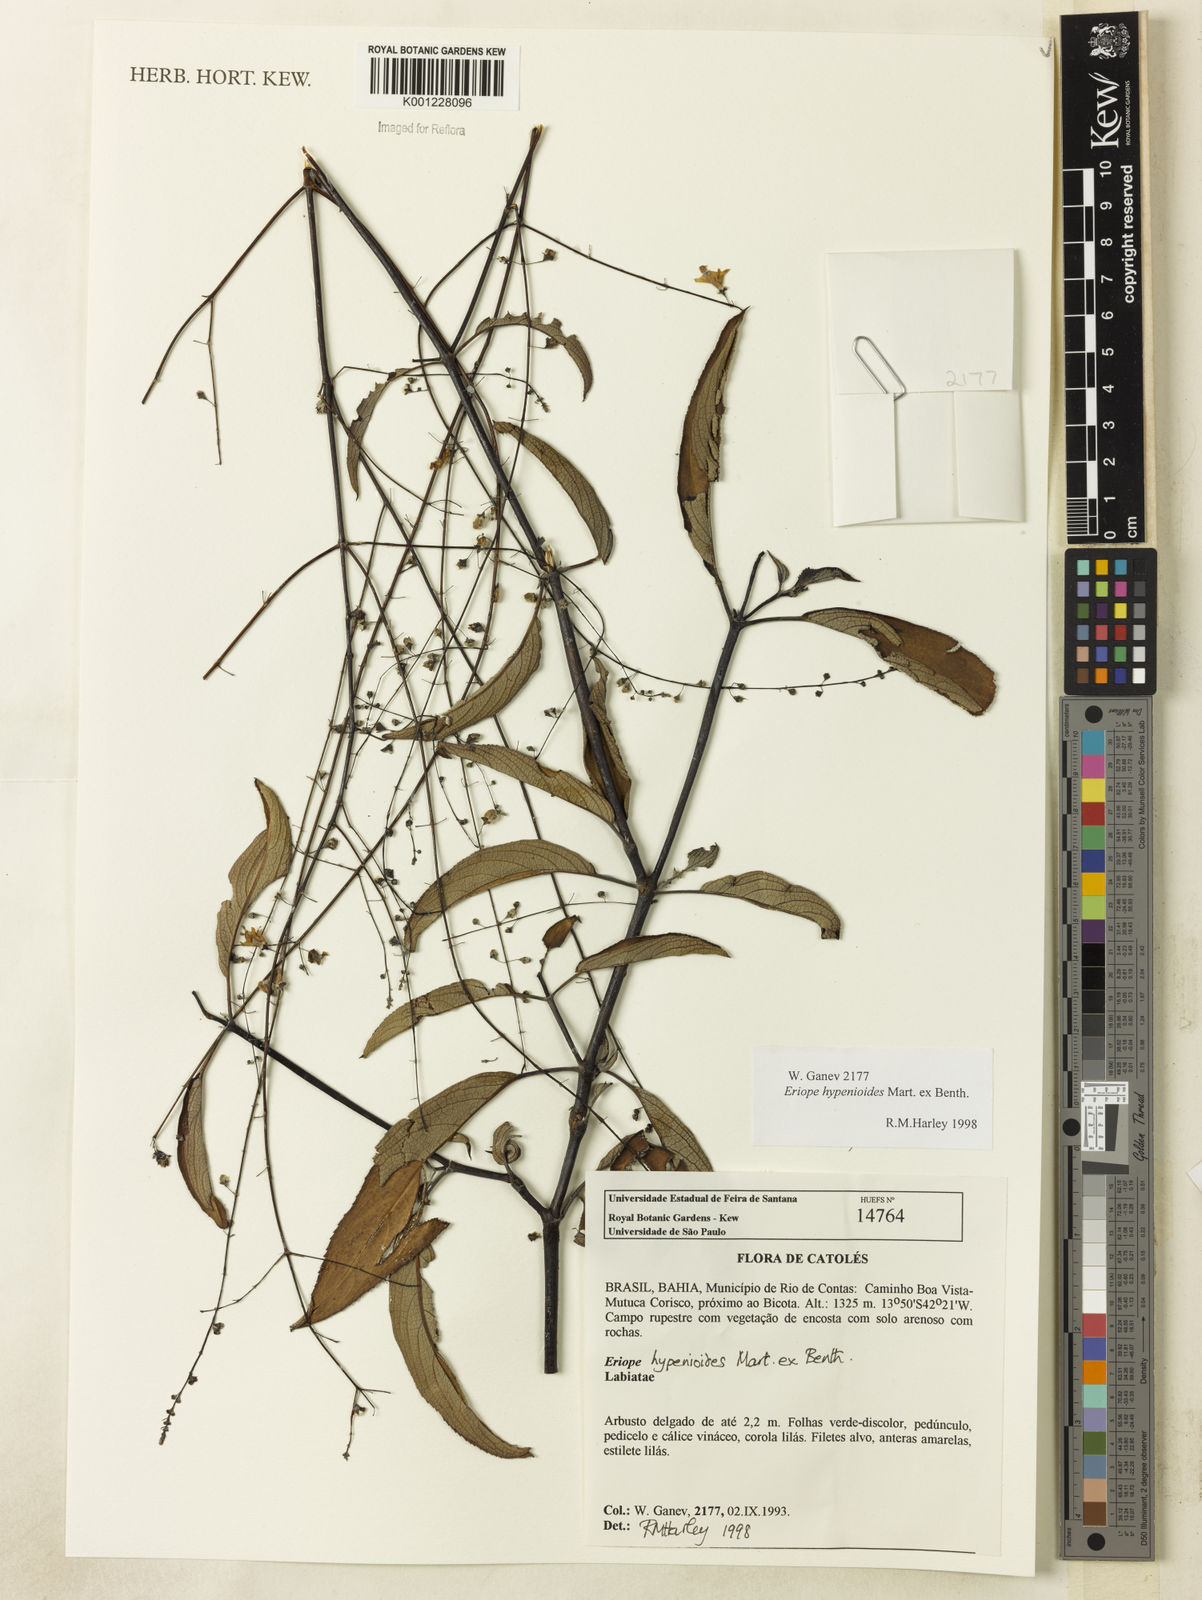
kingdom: Plantae
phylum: Tracheophyta
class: Magnoliopsida
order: Lamiales
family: Lamiaceae
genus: Eriope
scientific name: Eriope hypenioides
